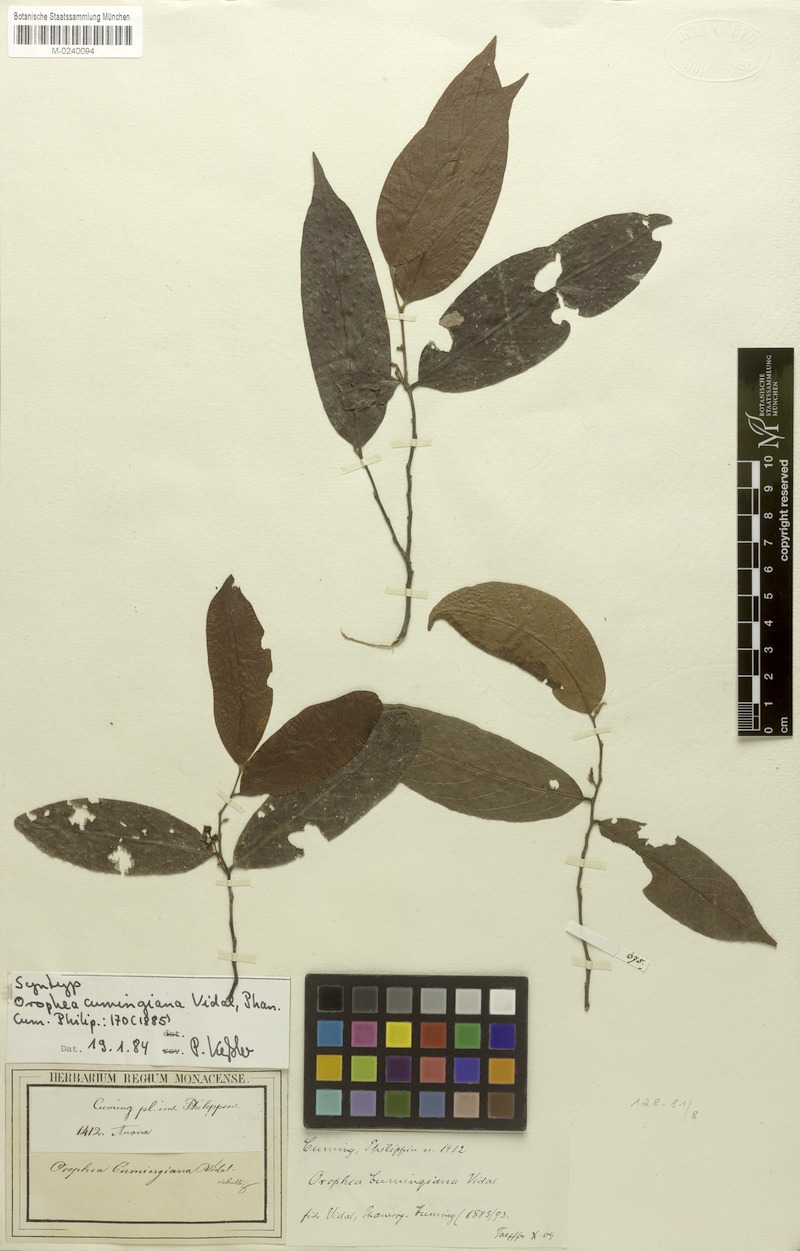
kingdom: Plantae
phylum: Tracheophyta
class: Magnoliopsida
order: Magnoliales
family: Annonaceae
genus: Orophea
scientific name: Orophea cumingiana
